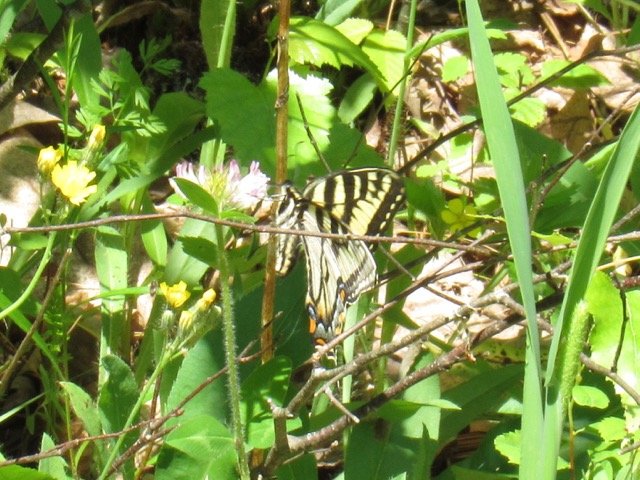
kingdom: Animalia
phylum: Arthropoda
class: Insecta
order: Lepidoptera
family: Papilionidae
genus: Pterourus
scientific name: Pterourus canadensis
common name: Canadian Tiger Swallowtail
